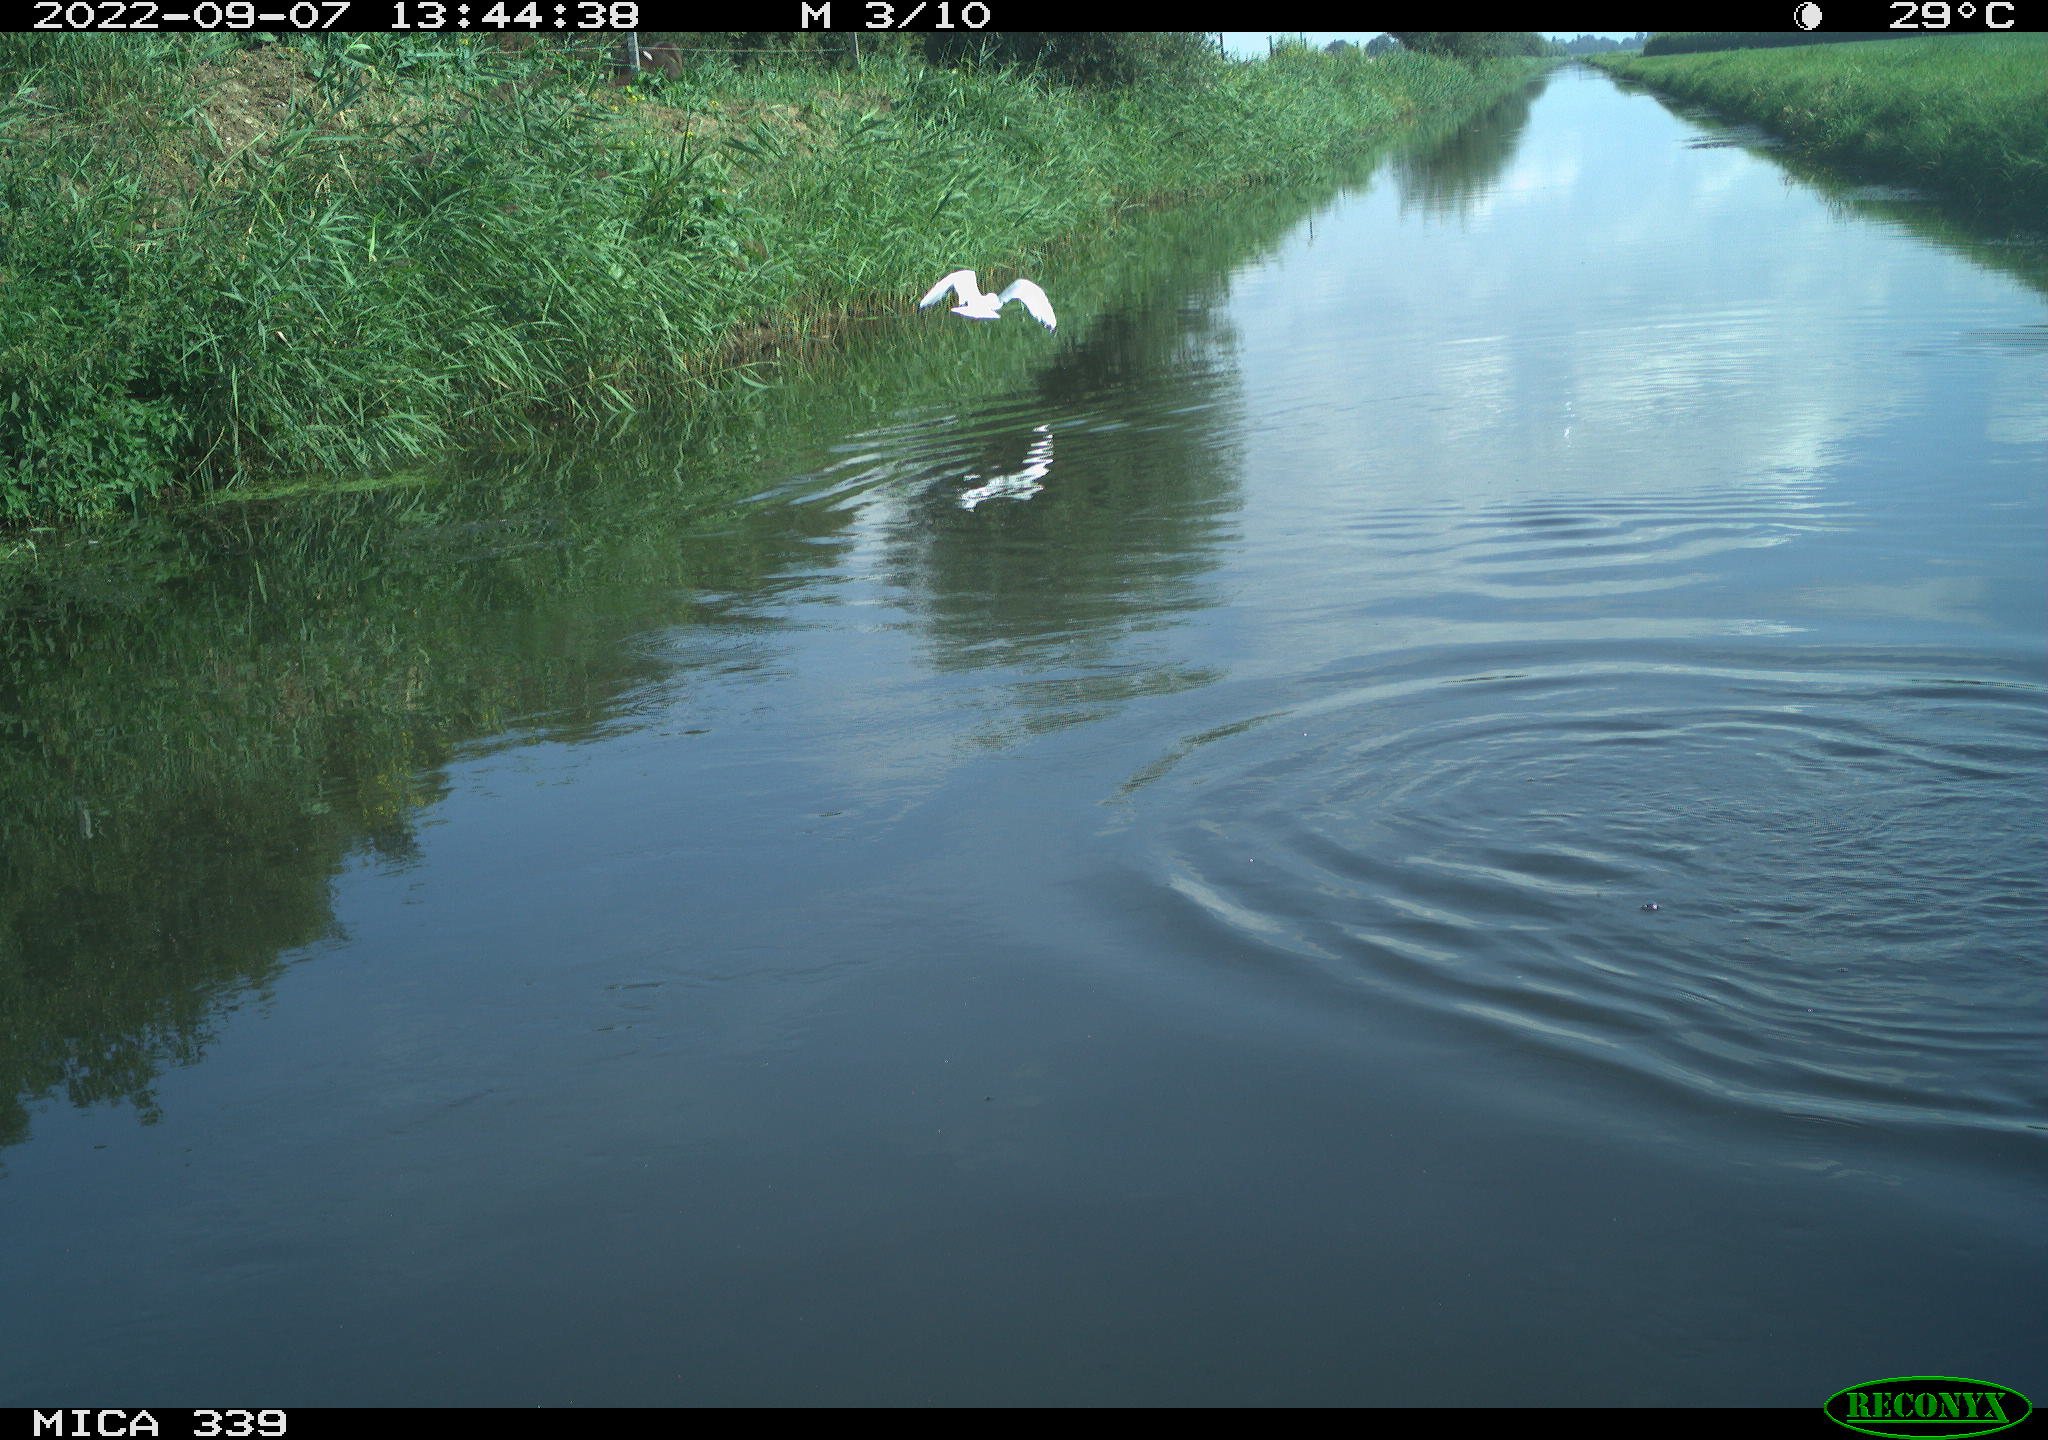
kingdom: Animalia
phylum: Chordata
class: Aves
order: Charadriiformes
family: Laridae
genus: Chroicocephalus
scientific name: Chroicocephalus ridibundus
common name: Black-headed gull
